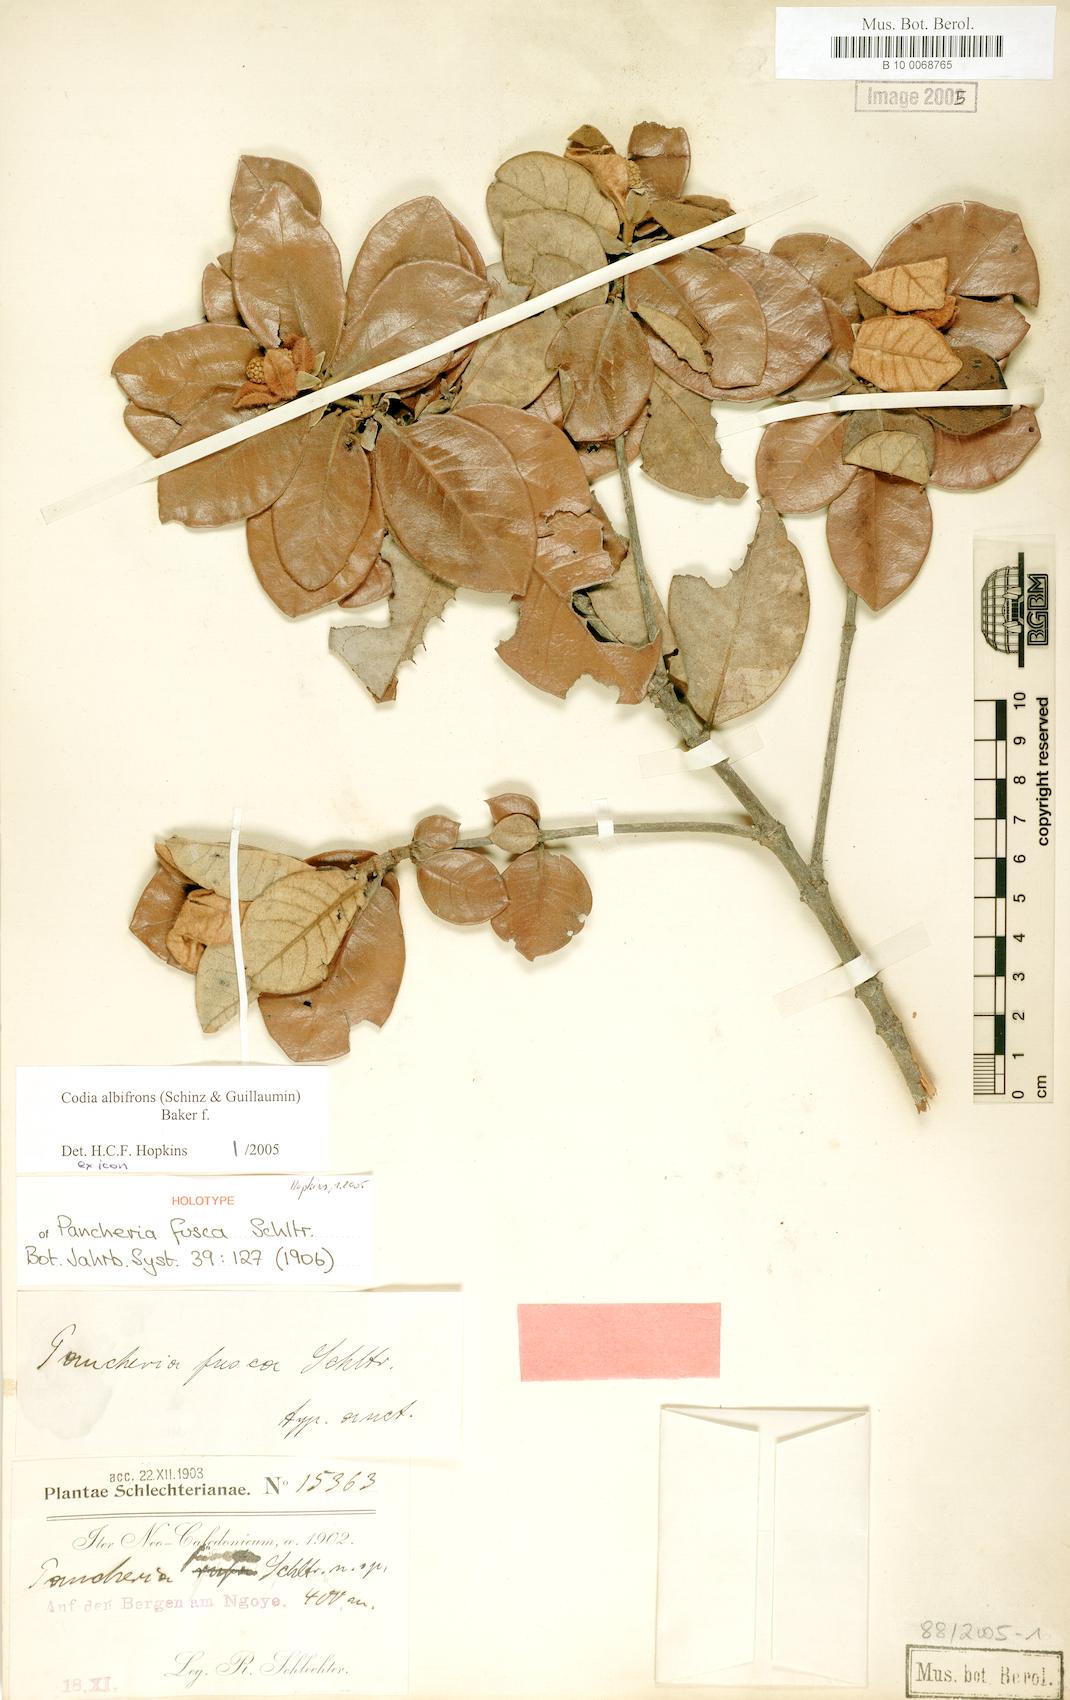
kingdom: Plantae
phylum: Tracheophyta
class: Magnoliopsida
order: Oxalidales
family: Cunoniaceae
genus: Codia
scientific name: Codia albifrons
